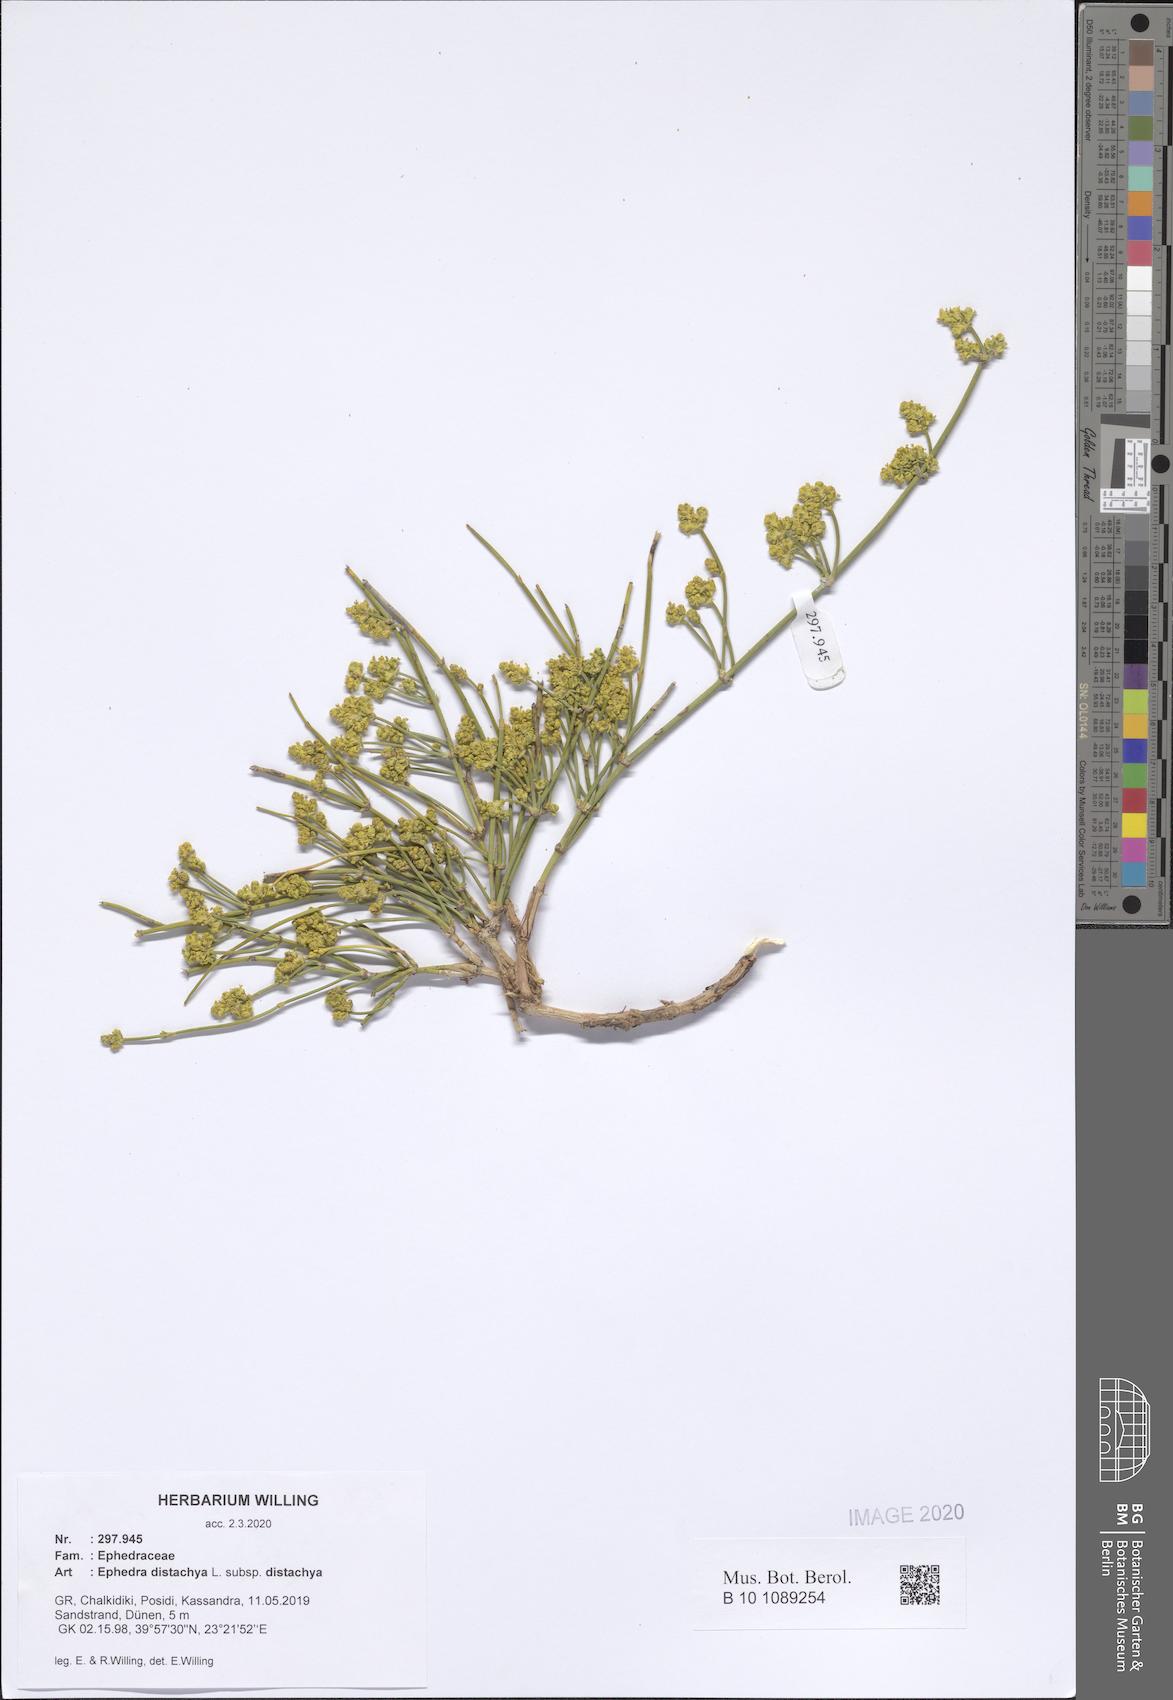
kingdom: Plantae
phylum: Tracheophyta
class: Gnetopsida
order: Ephedrales
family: Ephedraceae
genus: Ephedra
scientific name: Ephedra distachya
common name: Sea grape
